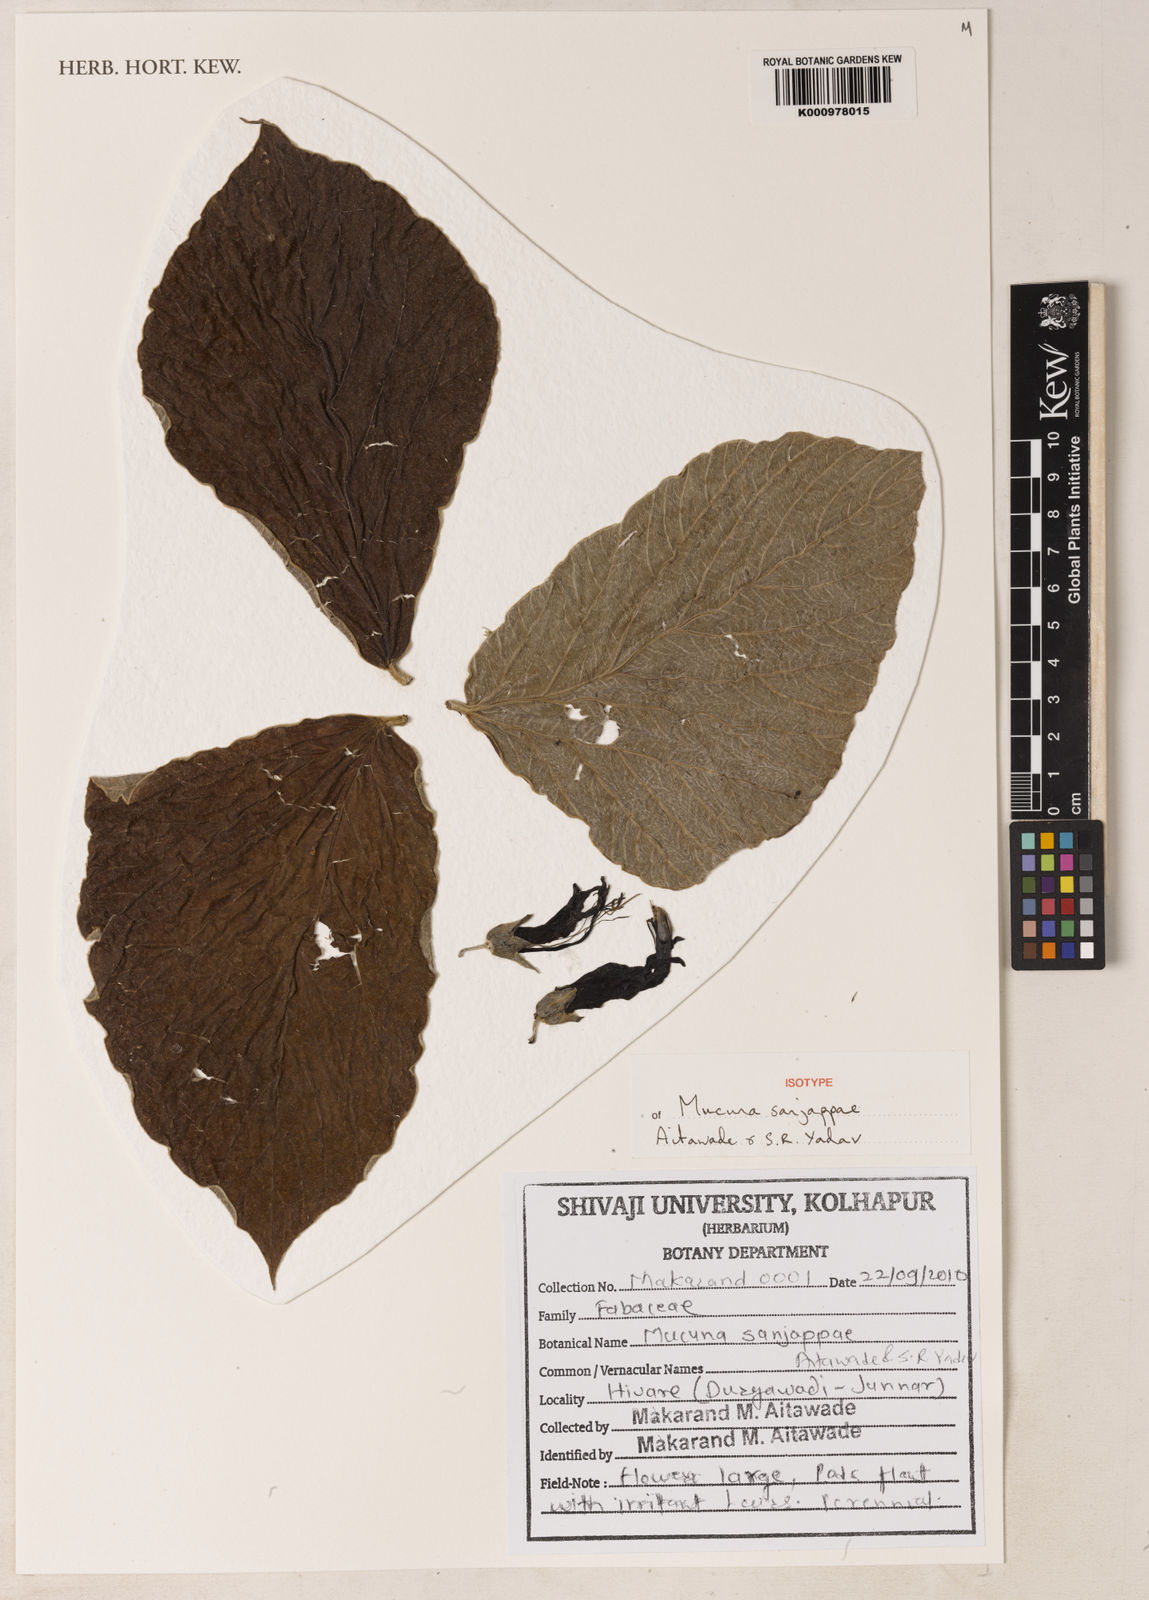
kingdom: Plantae
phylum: Tracheophyta
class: Magnoliopsida
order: Fabales
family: Fabaceae
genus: Mucuna
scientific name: Mucuna sanjappae
